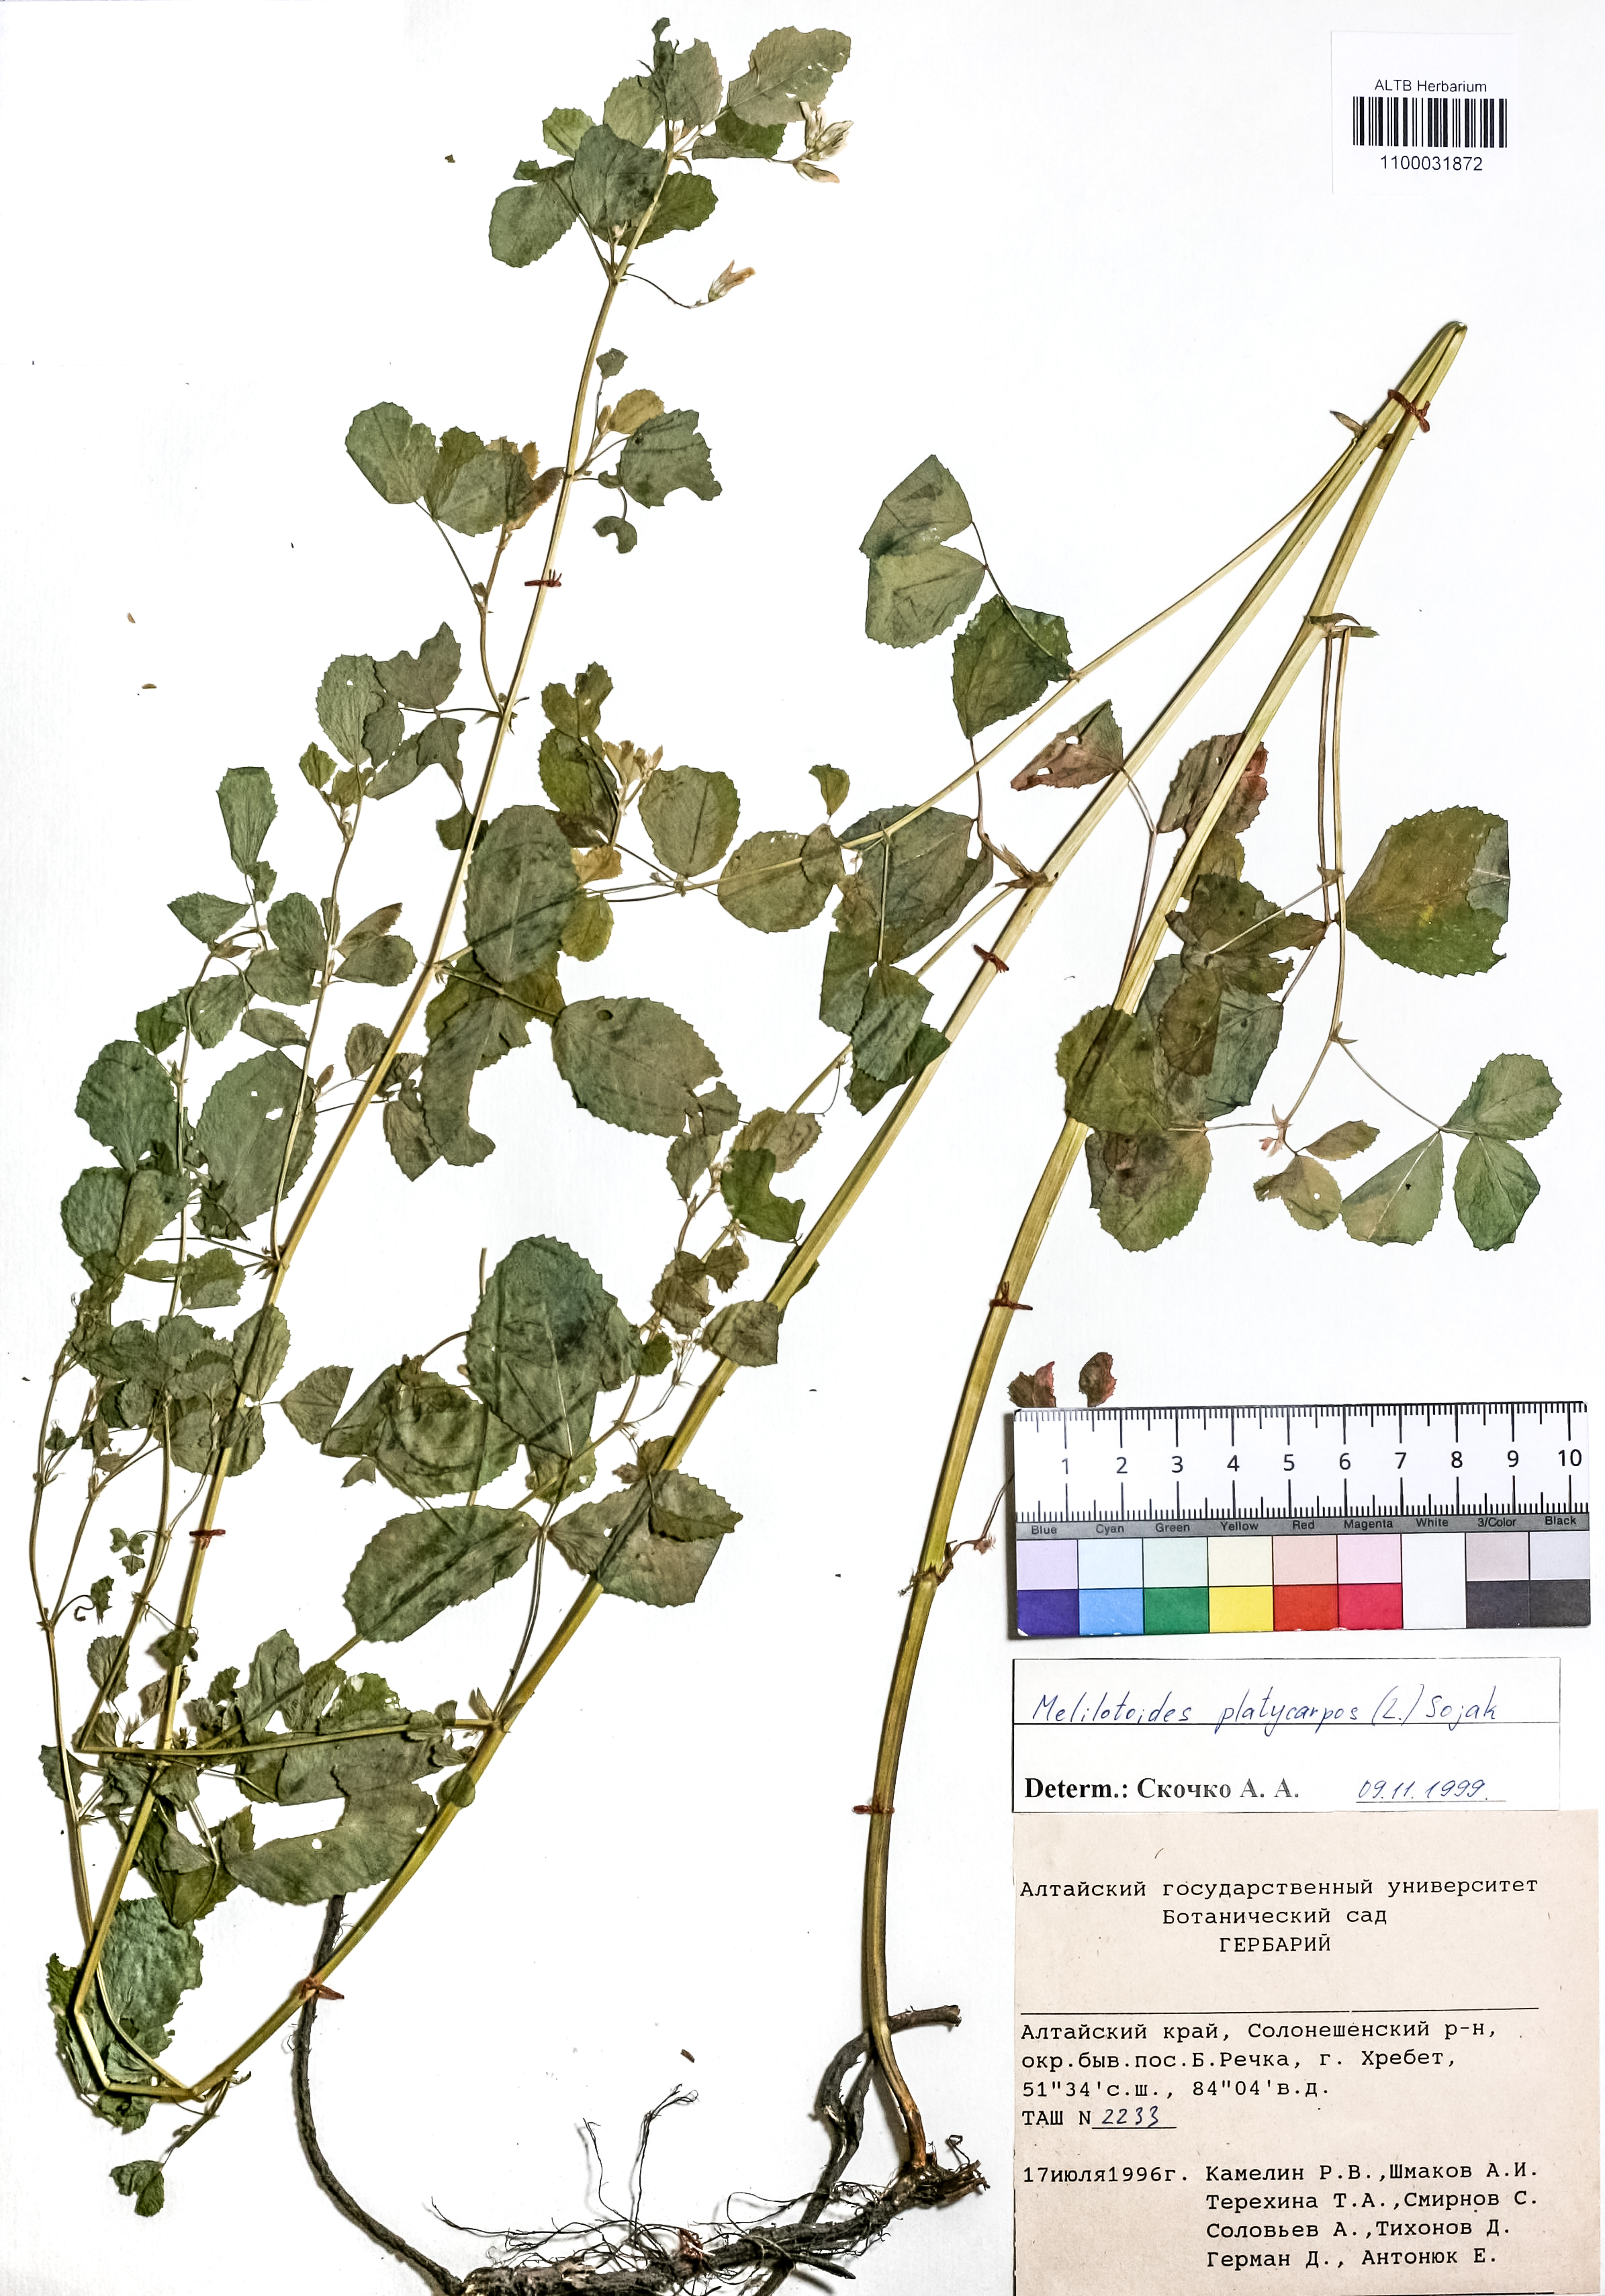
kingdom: Plantae
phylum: Tracheophyta
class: Magnoliopsida
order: Fabales
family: Fabaceae
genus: Medicago
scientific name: Medicago platycarpos
